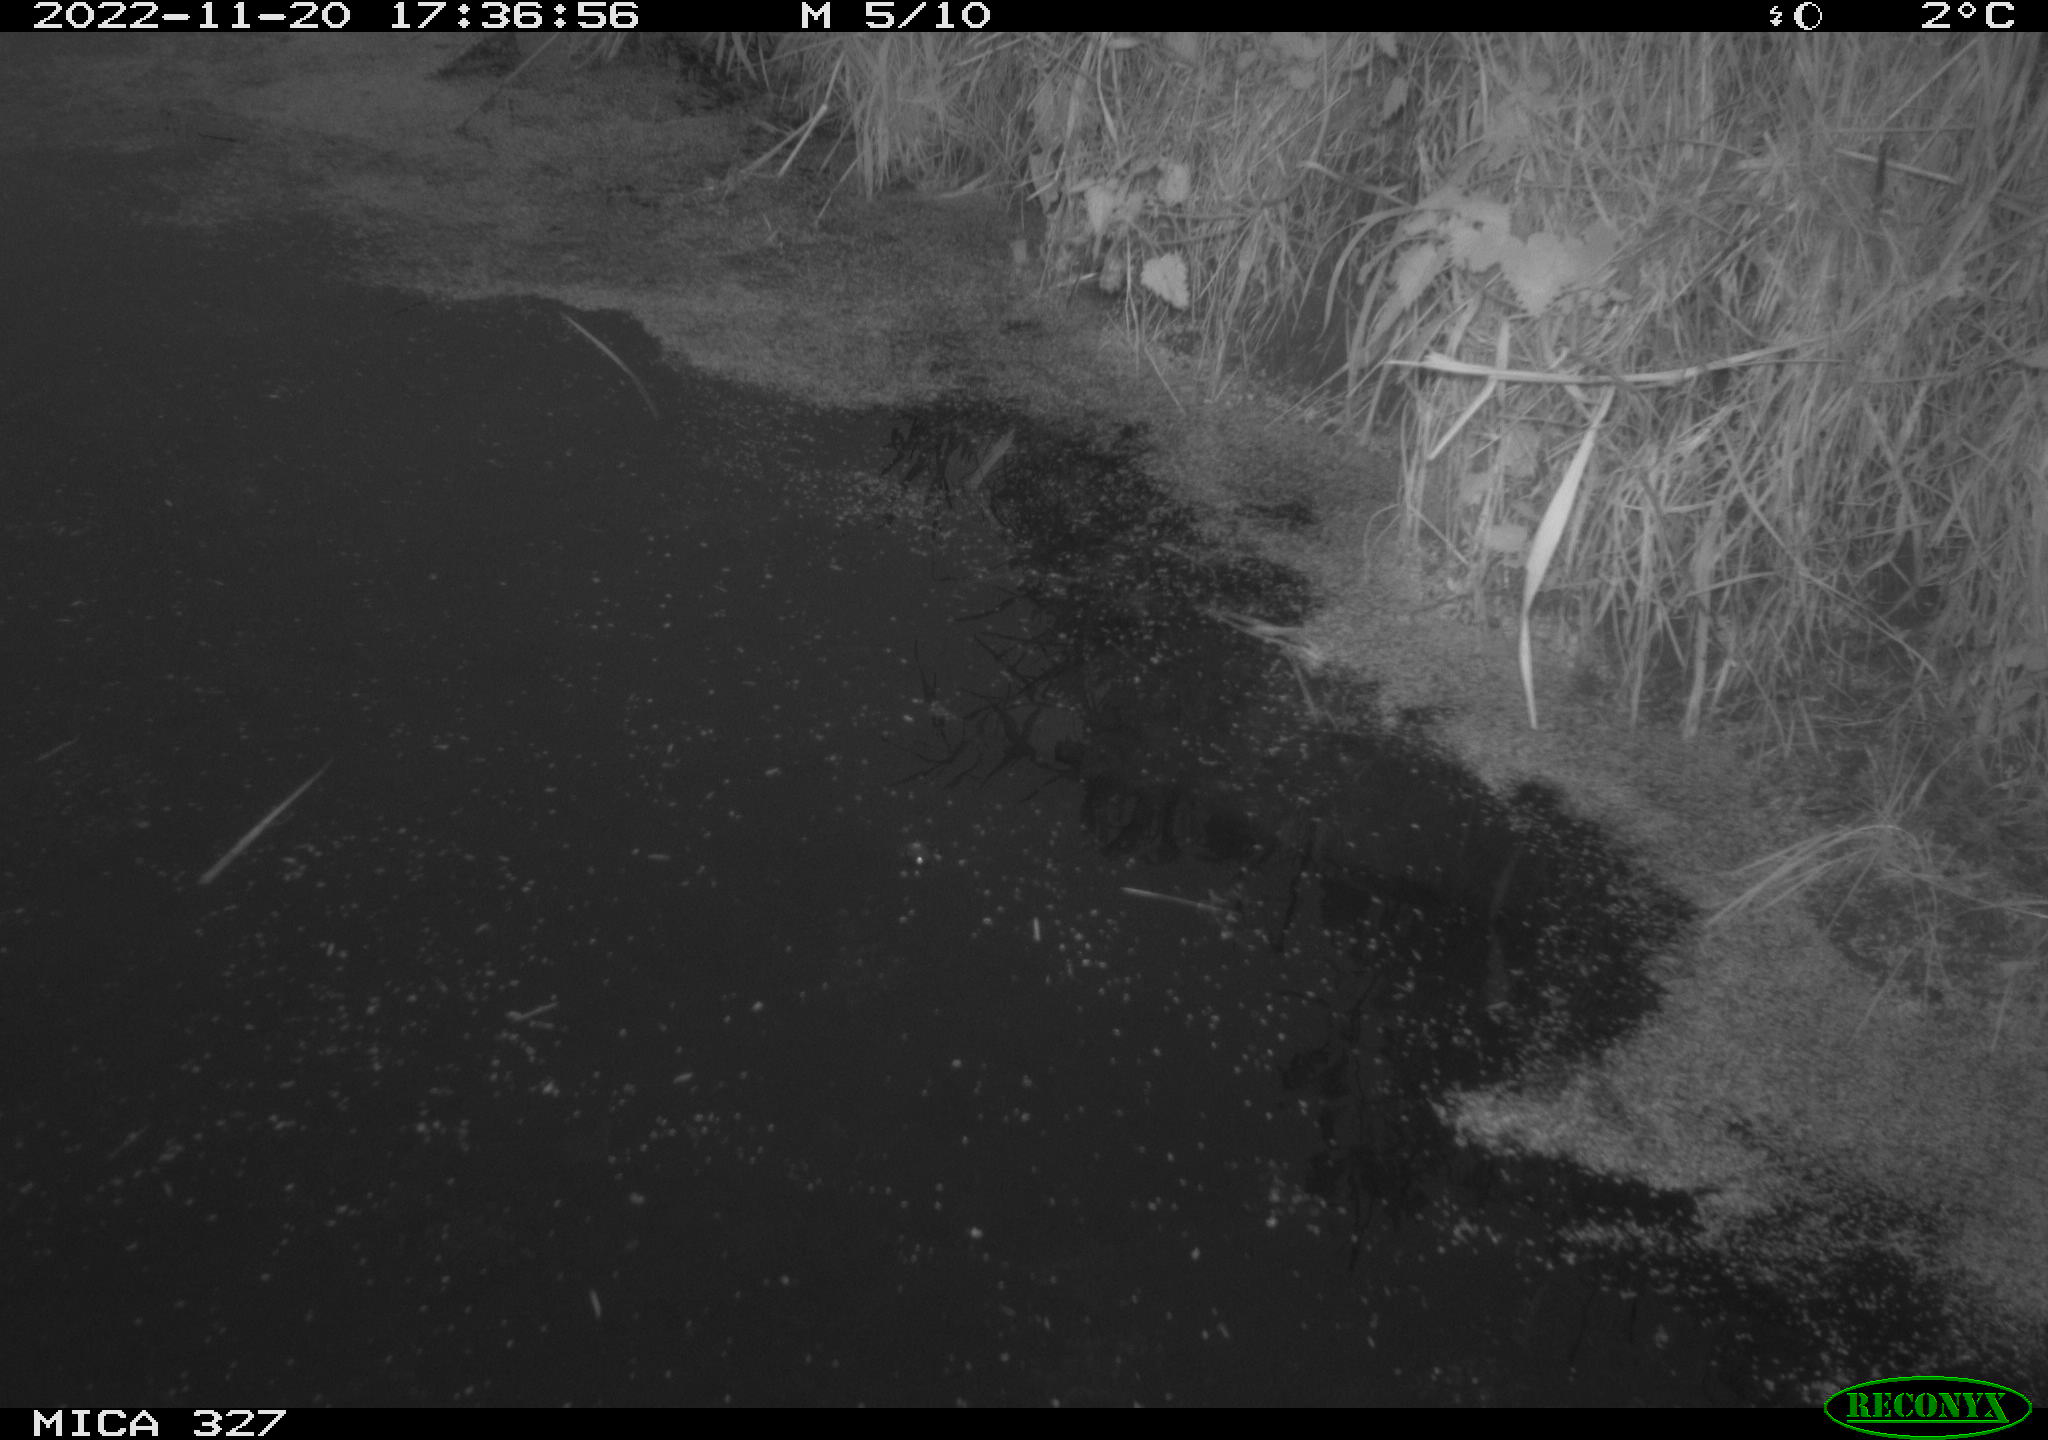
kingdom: Animalia
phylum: Chordata
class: Aves
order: Gruiformes
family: Rallidae
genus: Gallinula
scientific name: Gallinula chloropus
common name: Common moorhen
